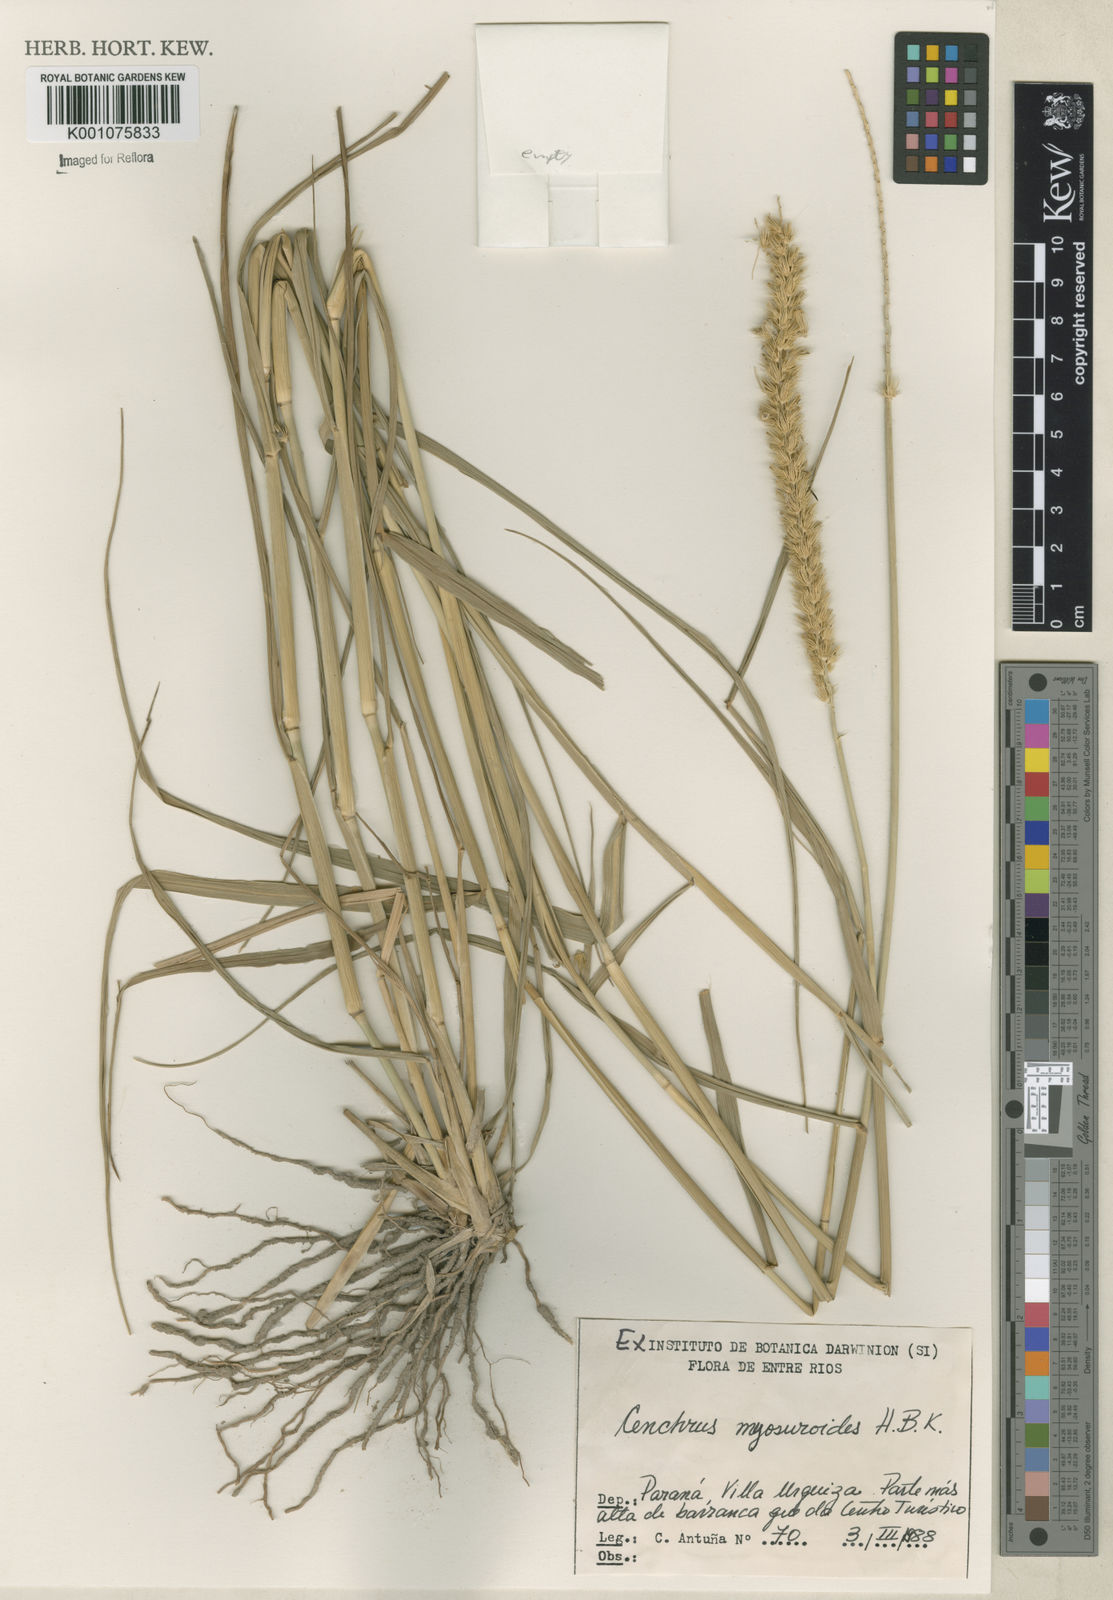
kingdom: Plantae
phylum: Tracheophyta
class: Liliopsida
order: Poales
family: Poaceae
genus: Cenchrus
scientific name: Cenchrus myosuroides
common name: Big sandbur
